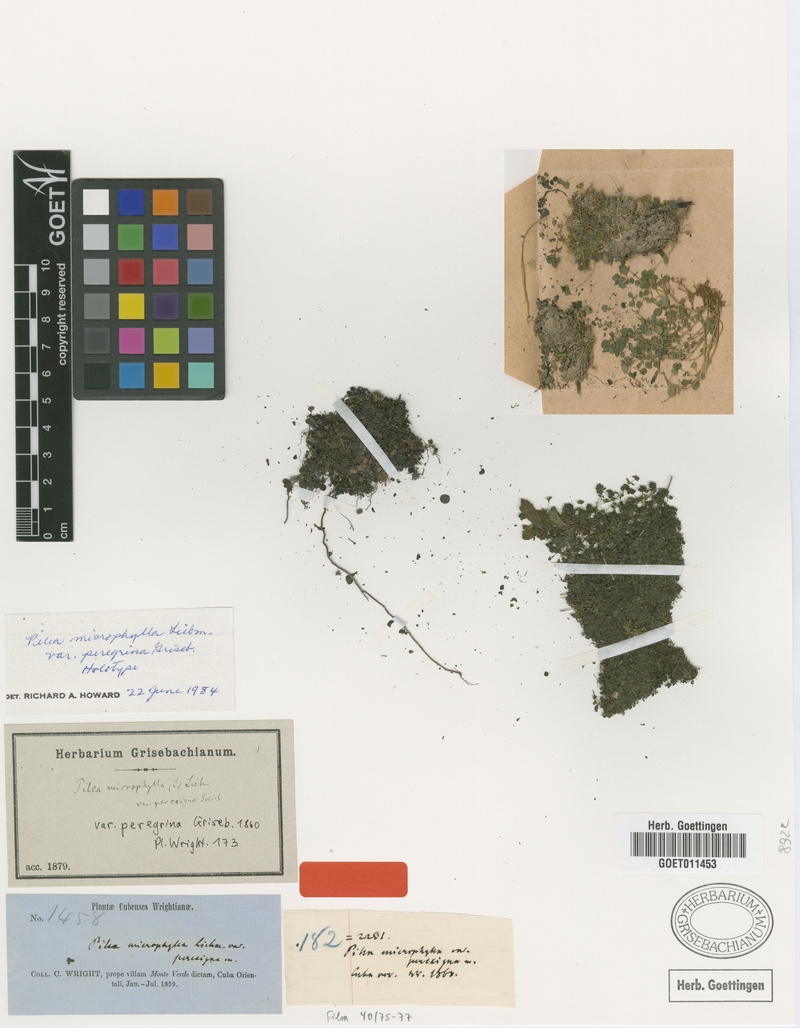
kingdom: Plantae
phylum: Tracheophyta
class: Magnoliopsida
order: Rosales
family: Urticaceae
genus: Pilea
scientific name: Pilea herniarioides
